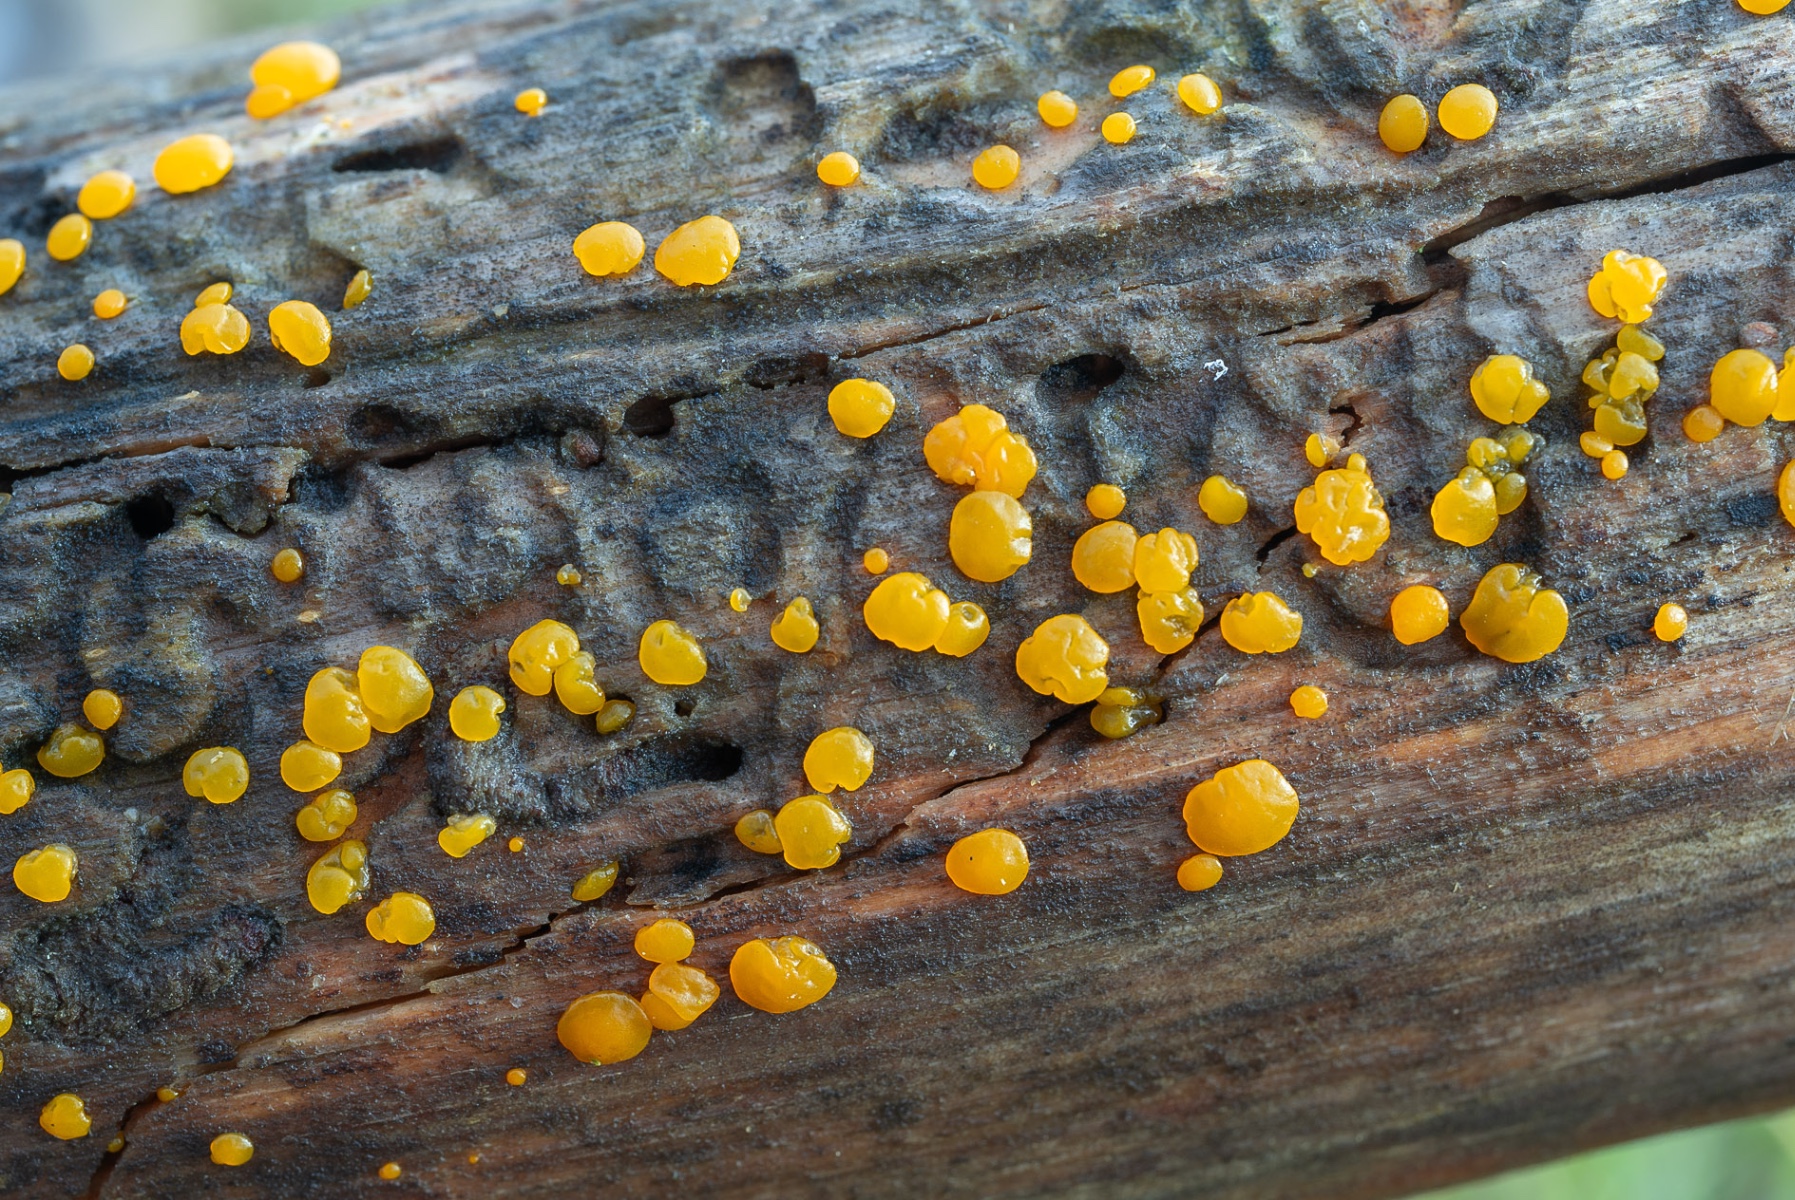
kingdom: Fungi
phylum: Basidiomycota
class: Dacrymycetes
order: Dacrymycetales
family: Dacrymycetaceae
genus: Dacrymyces
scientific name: Dacrymyces variisporus
